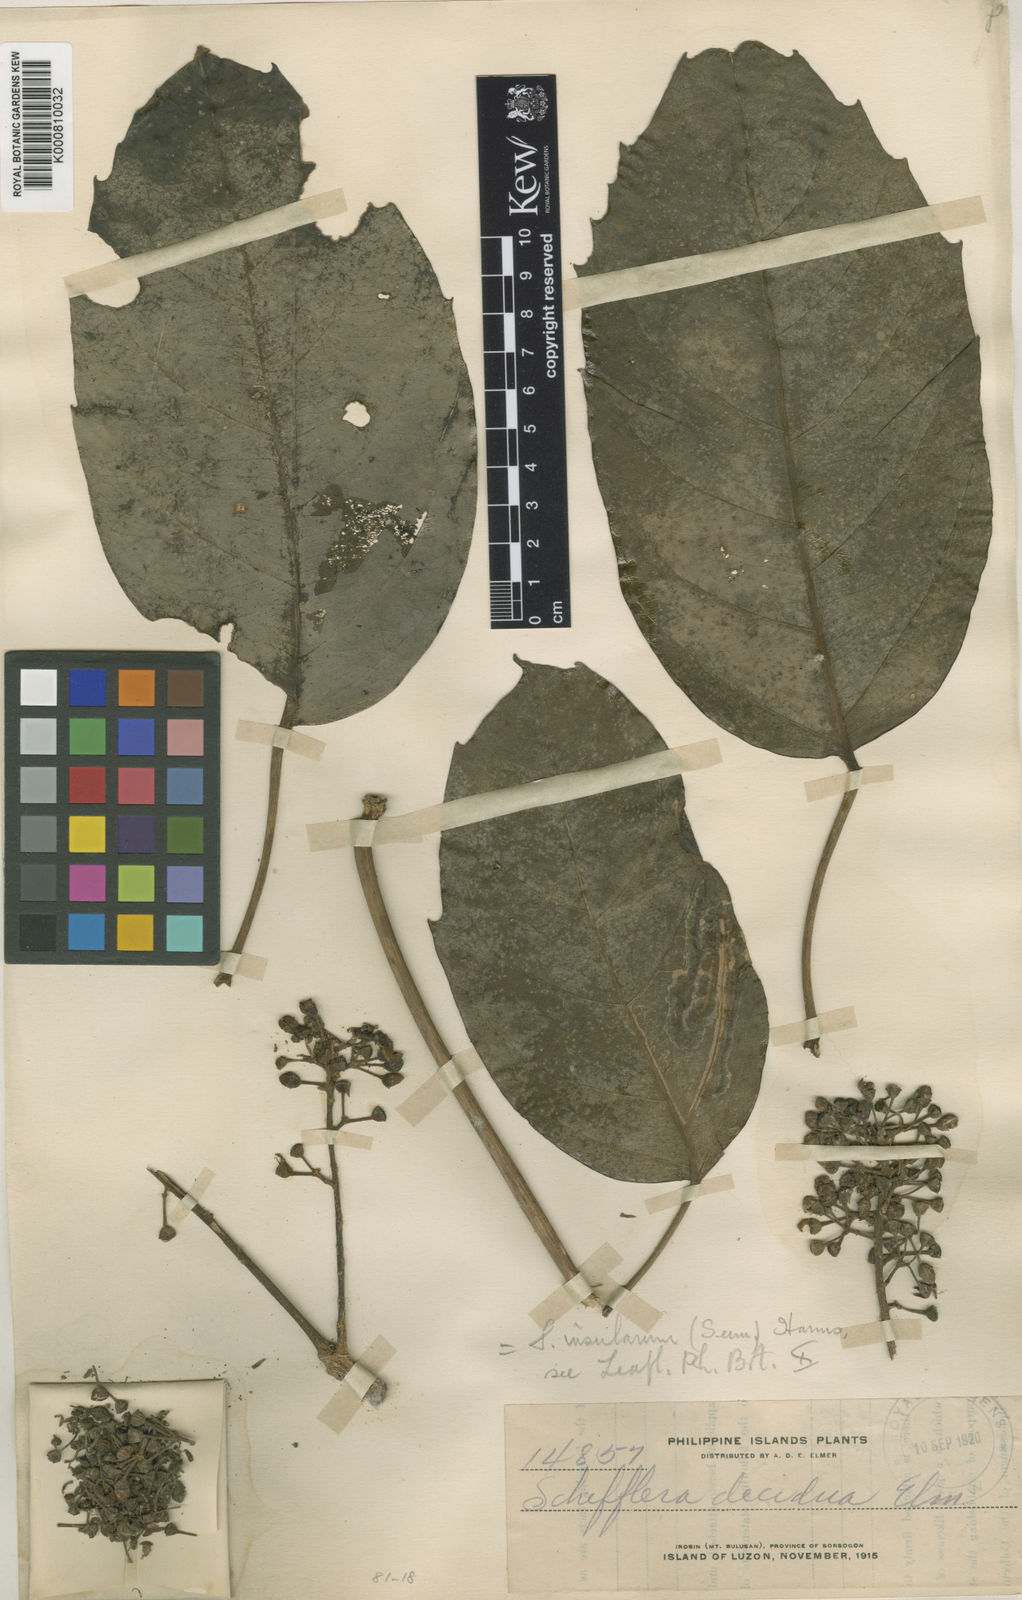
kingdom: Plantae
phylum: Tracheophyta
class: Magnoliopsida
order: Apiales
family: Araliaceae
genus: Heptapleurum
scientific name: Heptapleurum insularum
